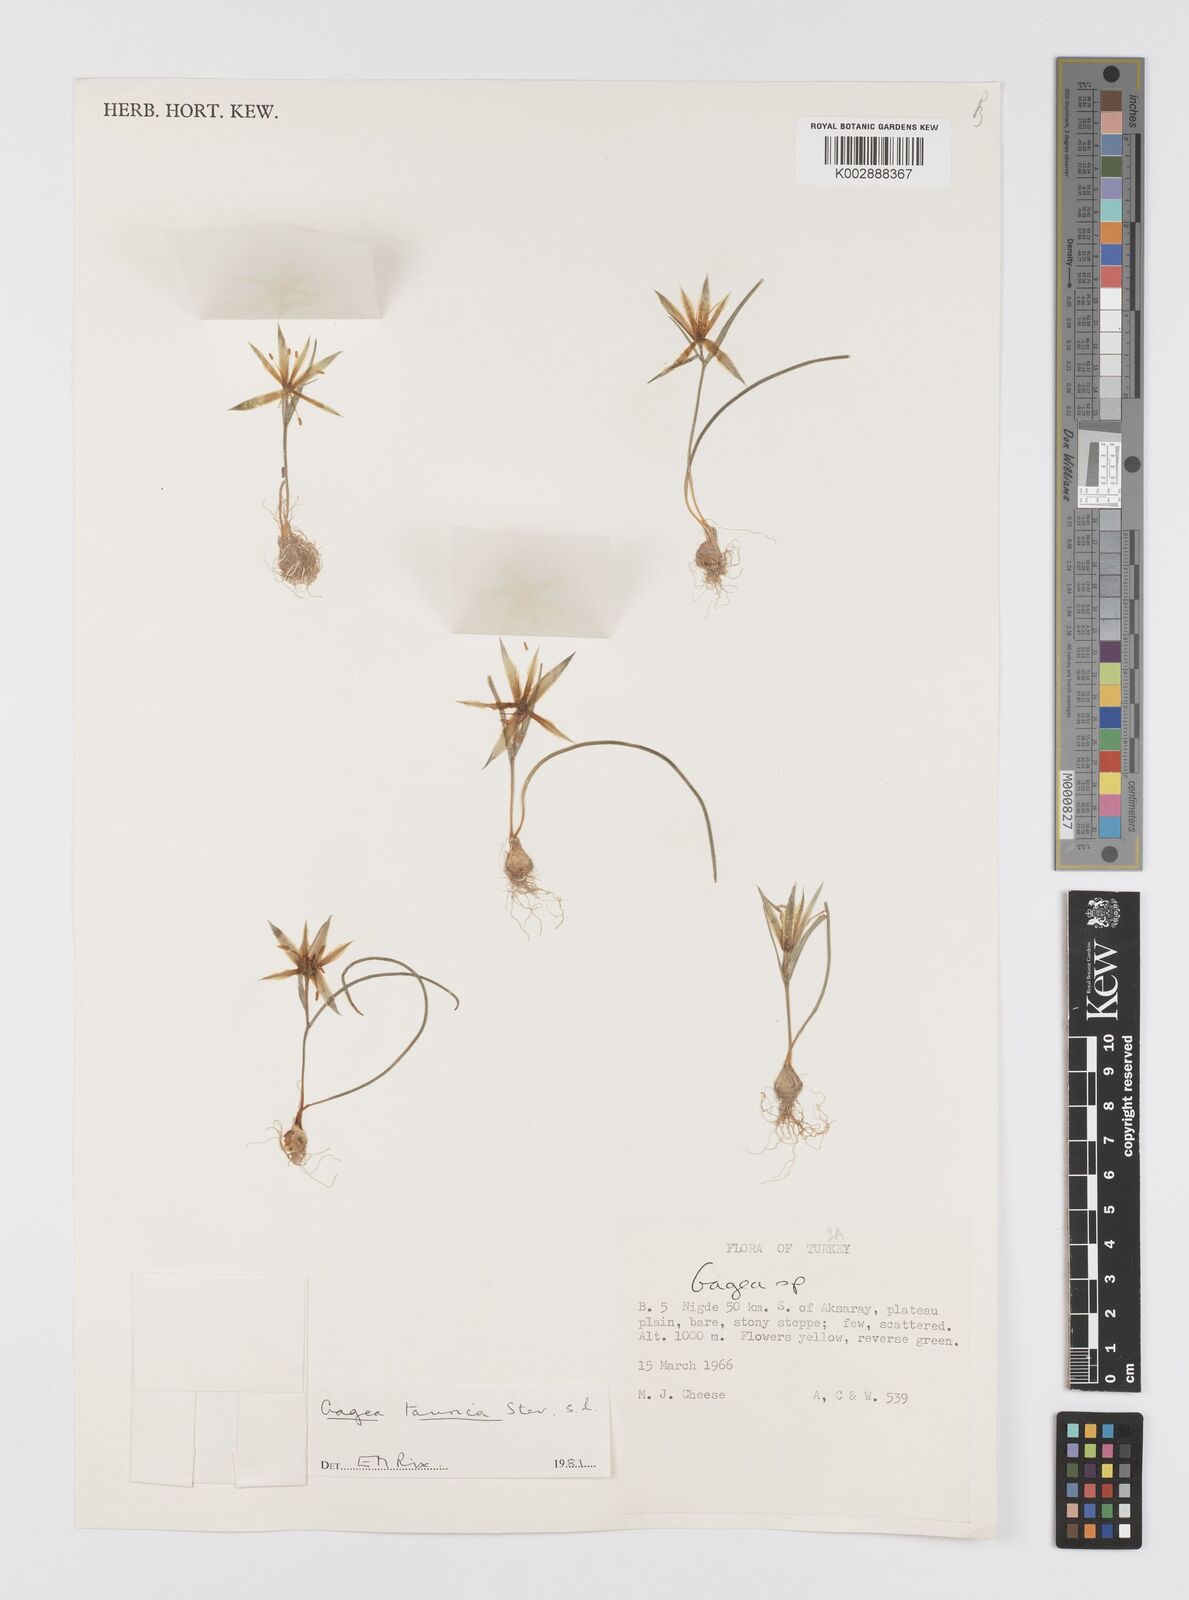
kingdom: Plantae
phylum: Tracheophyta
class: Liliopsida
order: Liliales
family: Liliaceae
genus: Gagea
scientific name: Gagea taurica
